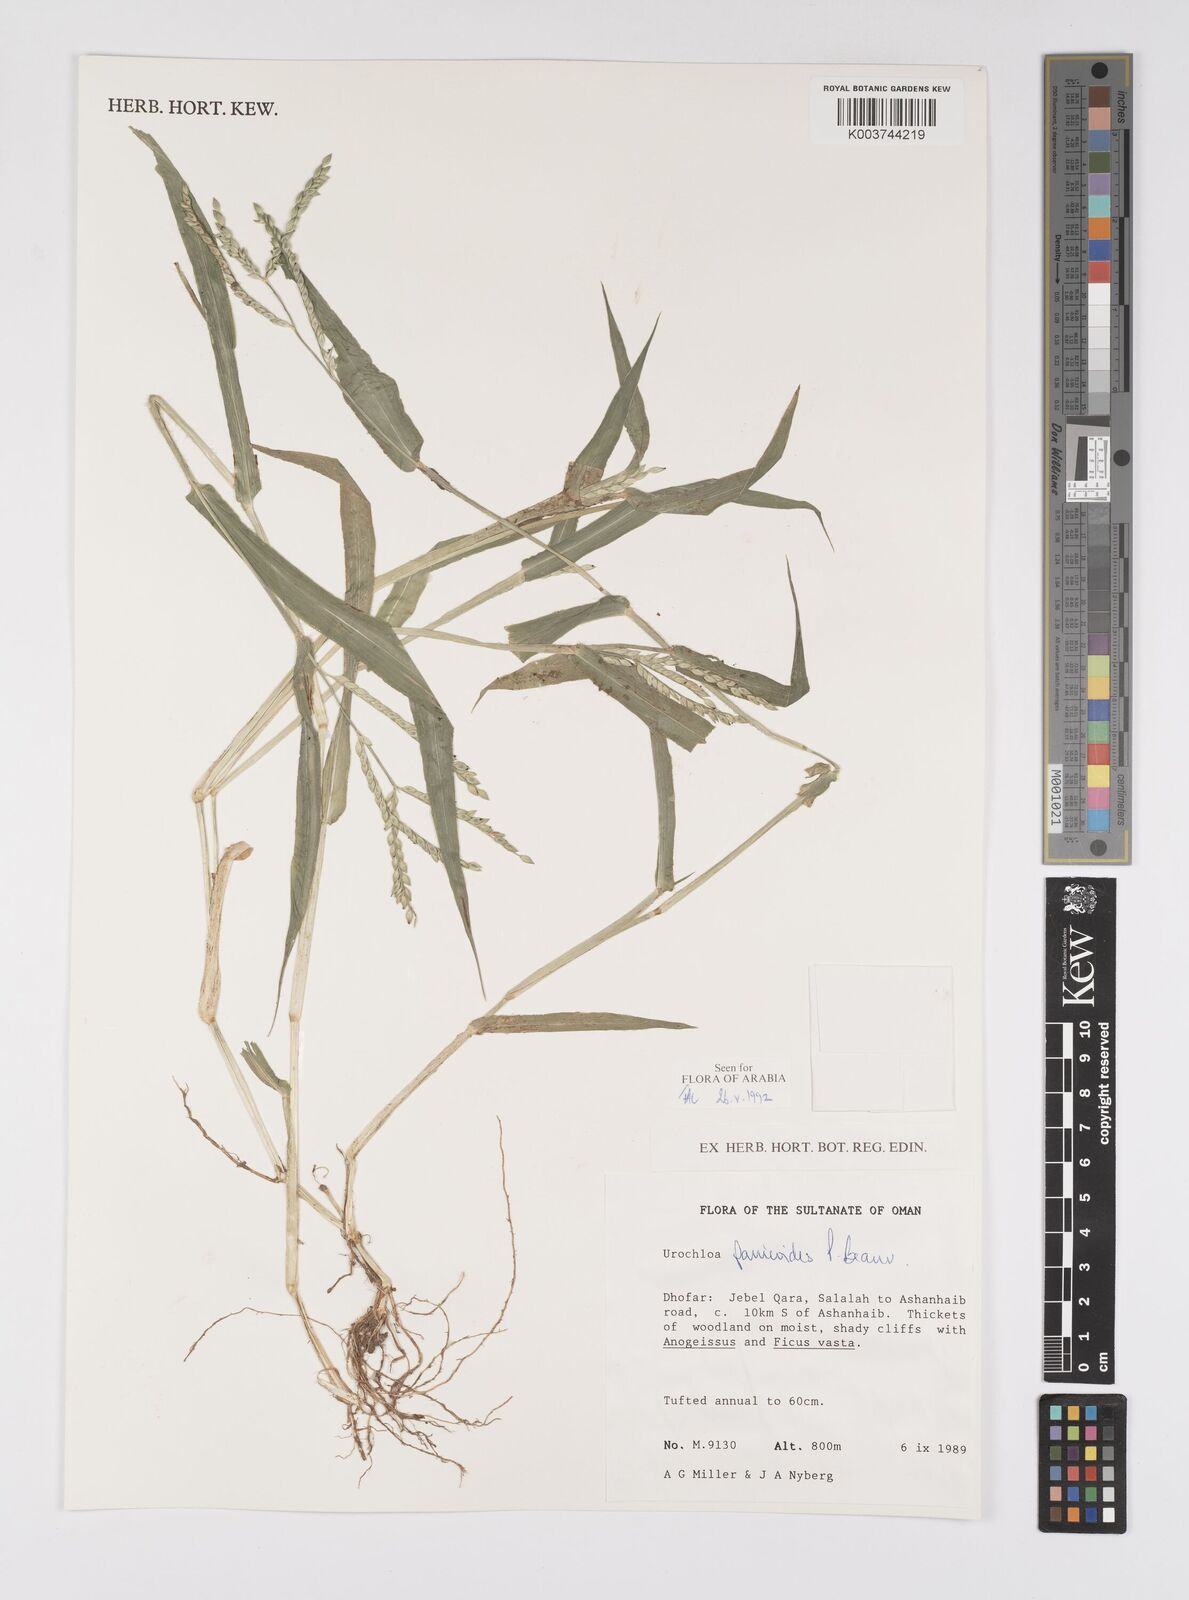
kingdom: Plantae
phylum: Tracheophyta
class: Liliopsida
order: Poales
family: Poaceae
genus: Urochloa
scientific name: Urochloa panicoides
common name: Sharp-flowered signal-grass
